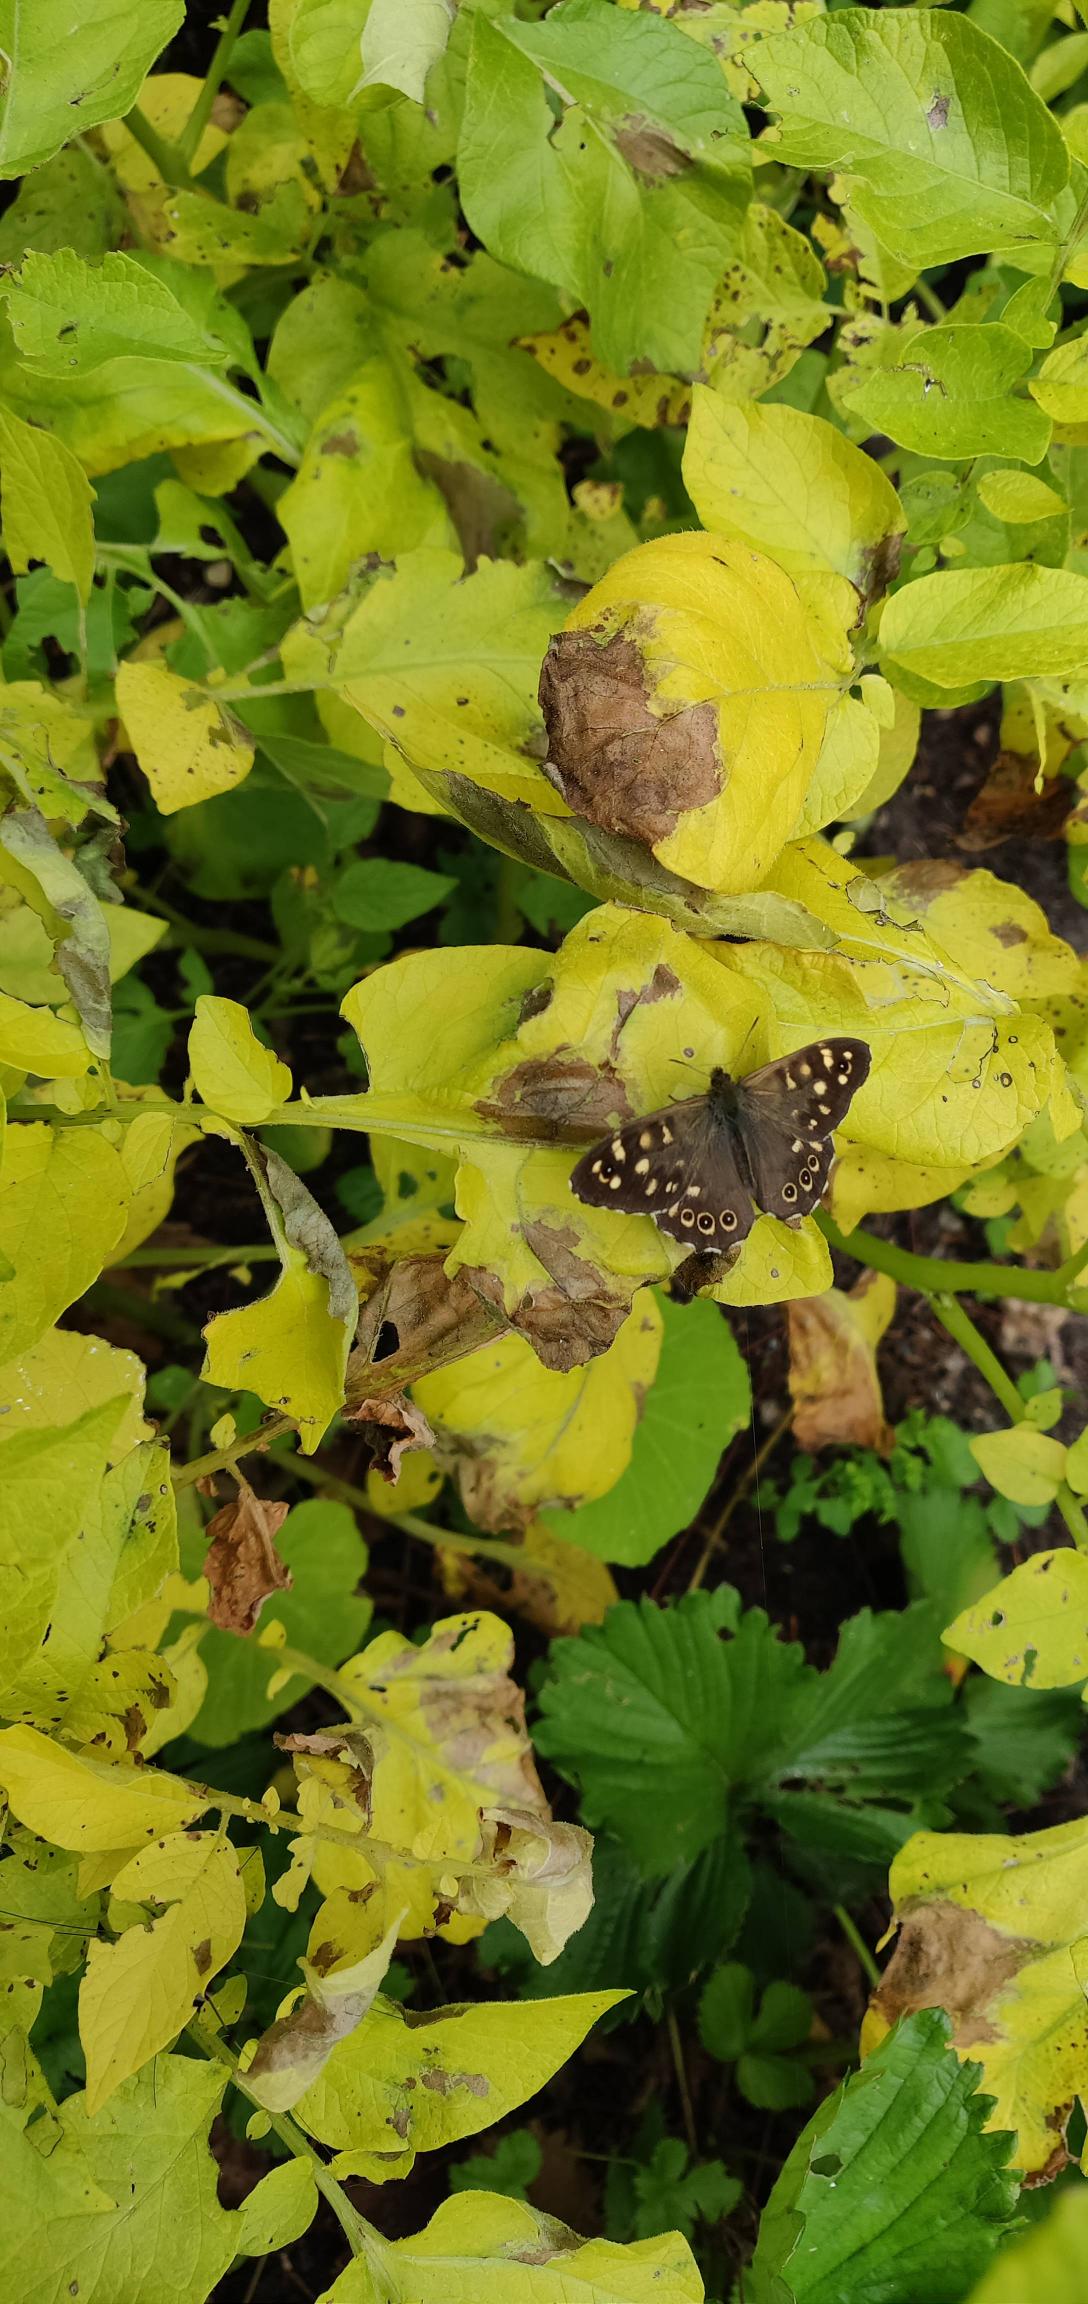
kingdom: Animalia
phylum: Arthropoda
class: Insecta
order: Lepidoptera
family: Nymphalidae
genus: Pararge
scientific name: Pararge aegeria
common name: Skovrandøje
